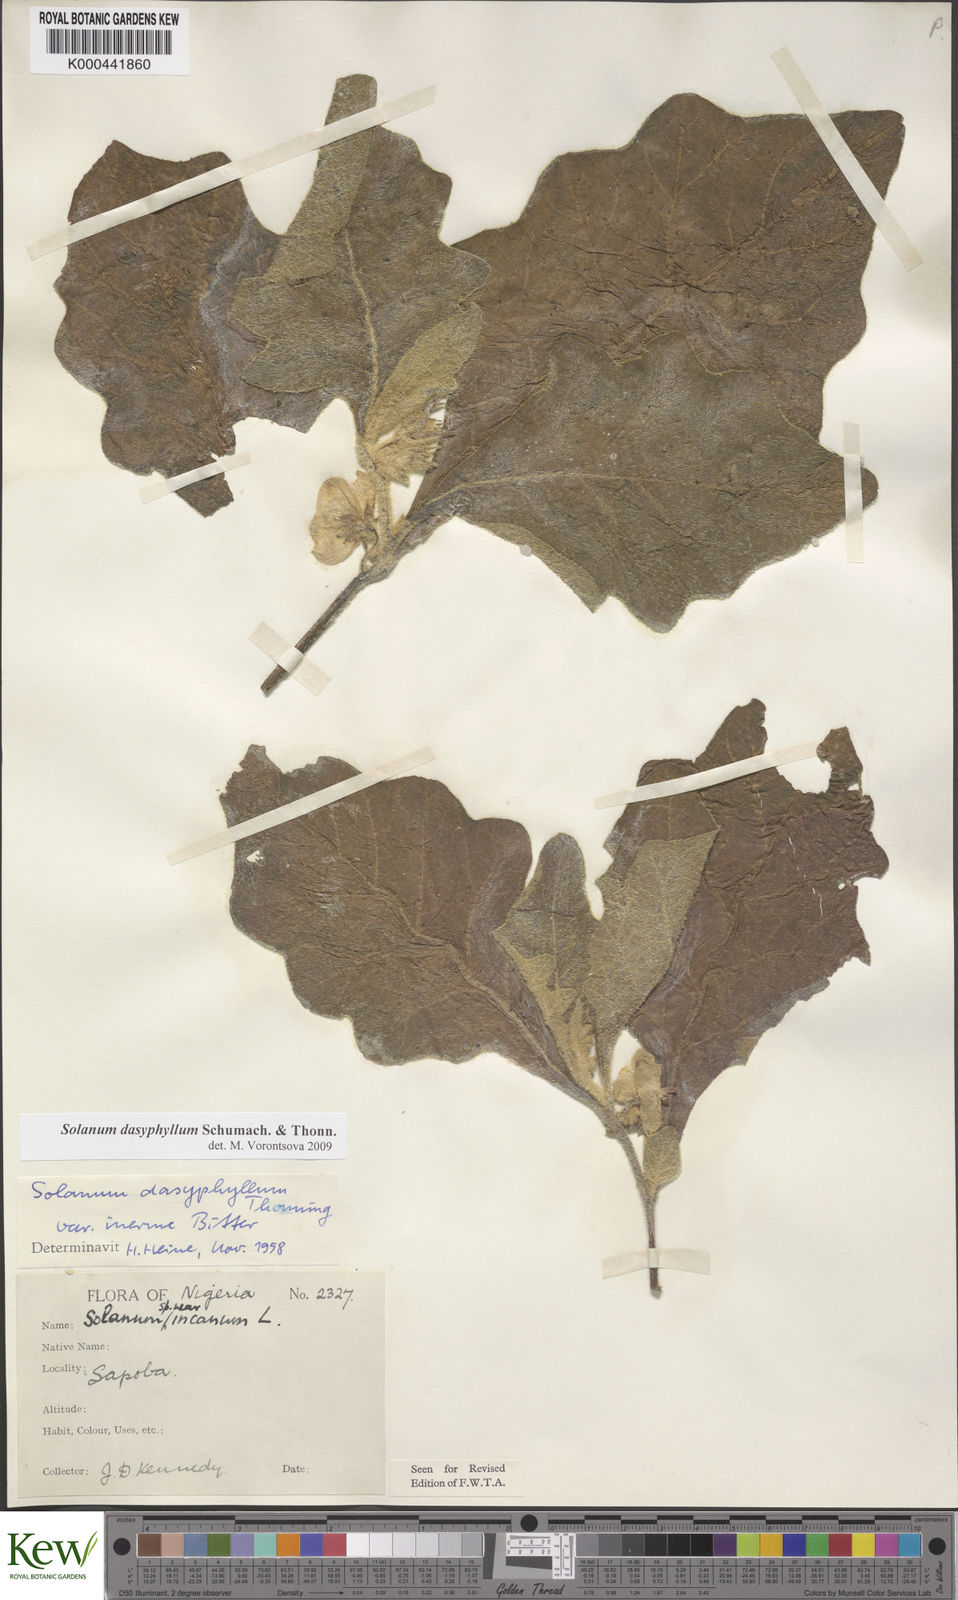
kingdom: Plantae
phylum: Tracheophyta
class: Magnoliopsida
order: Solanales
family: Solanaceae
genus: Solanum
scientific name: Solanum dasyphyllum
